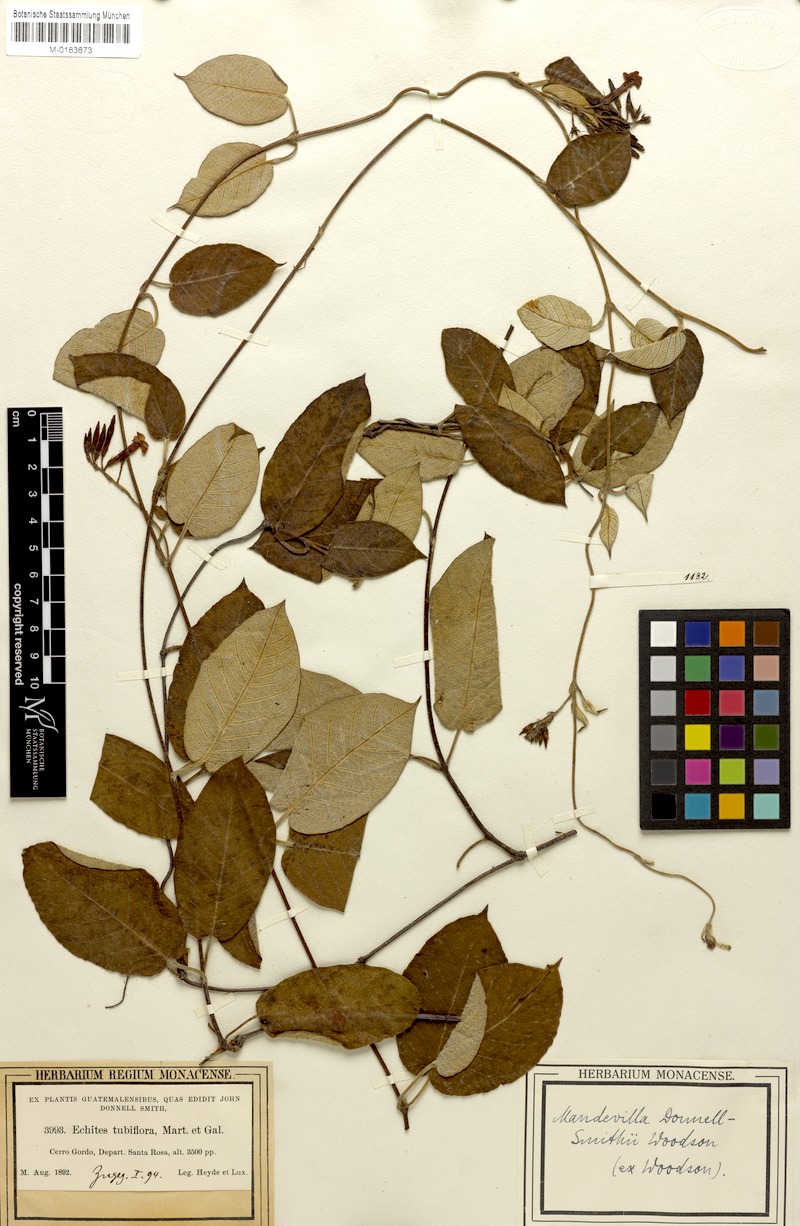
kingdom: Plantae
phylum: Tracheophyta
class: Magnoliopsida
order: Gentianales
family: Apocynaceae
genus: Mandevilla
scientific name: Mandevilla tubiflora
